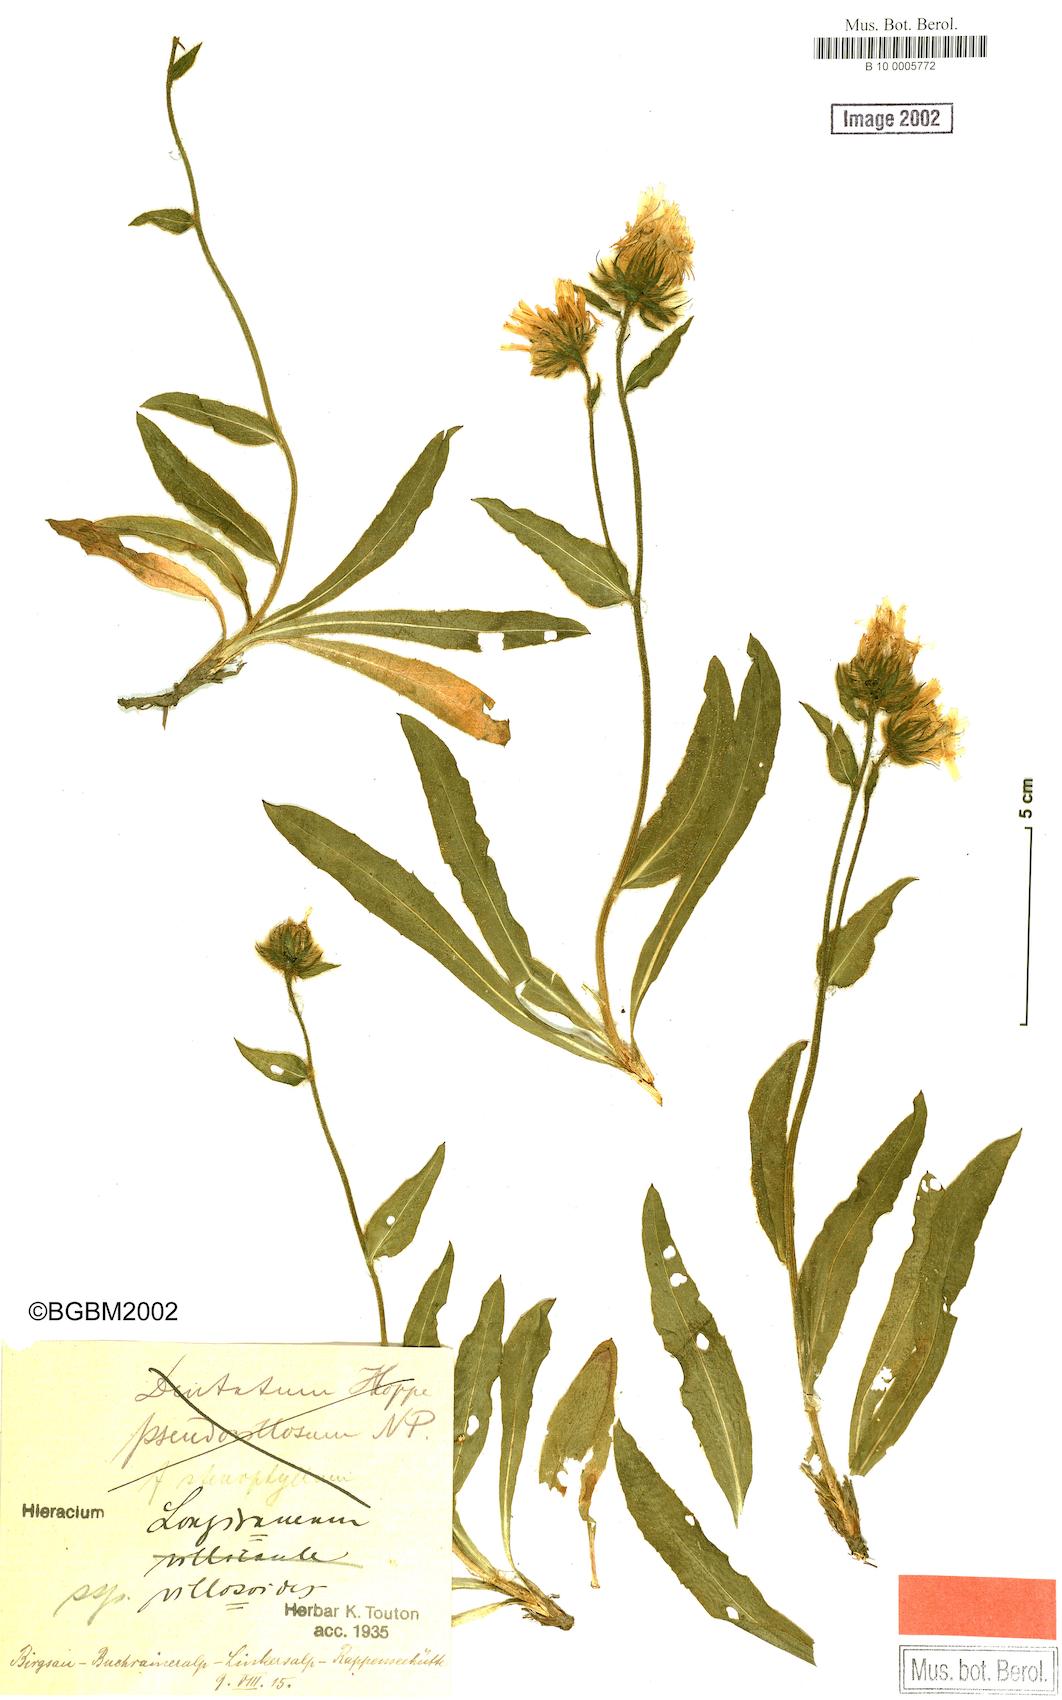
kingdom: Plantae
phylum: Tracheophyta
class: Magnoliopsida
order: Asterales
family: Asteraceae
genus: Hieracium
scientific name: Hieracium scorzonerifolium
